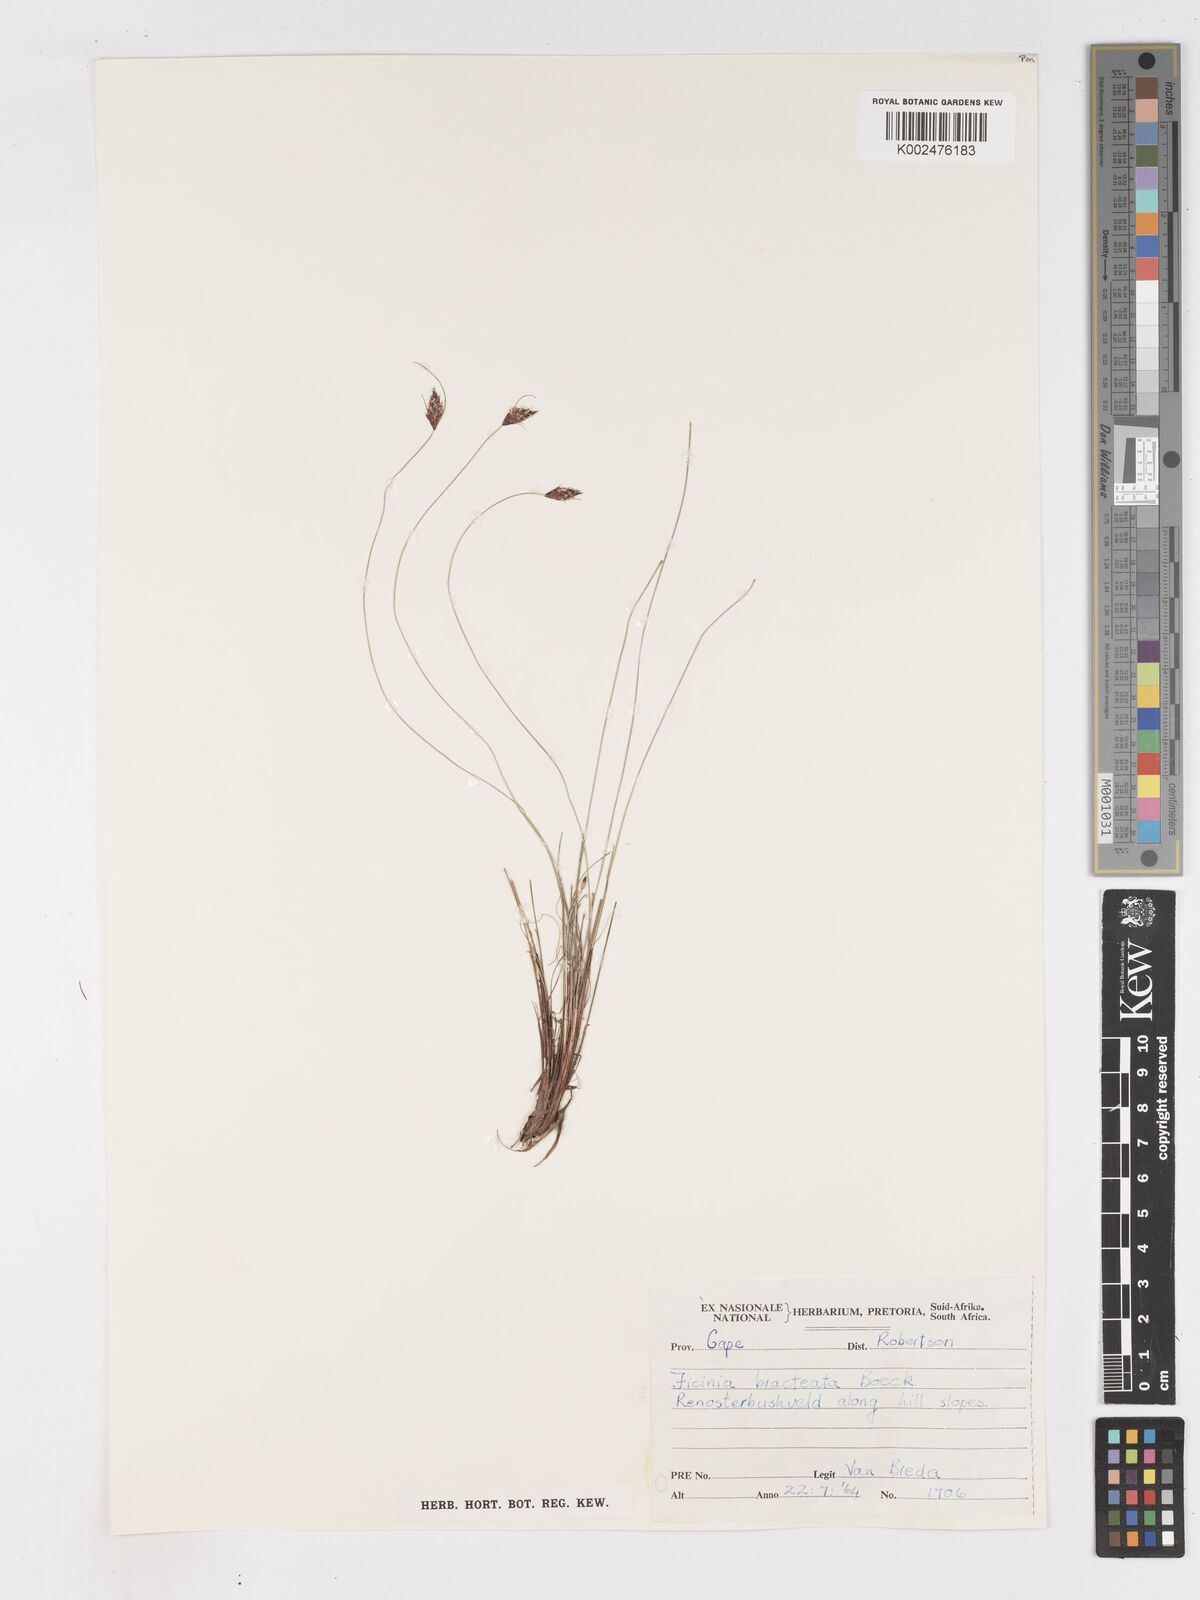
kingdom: Plantae
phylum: Tracheophyta
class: Liliopsida
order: Poales
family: Cyperaceae
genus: Ficinia
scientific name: Ficinia nigrescens
